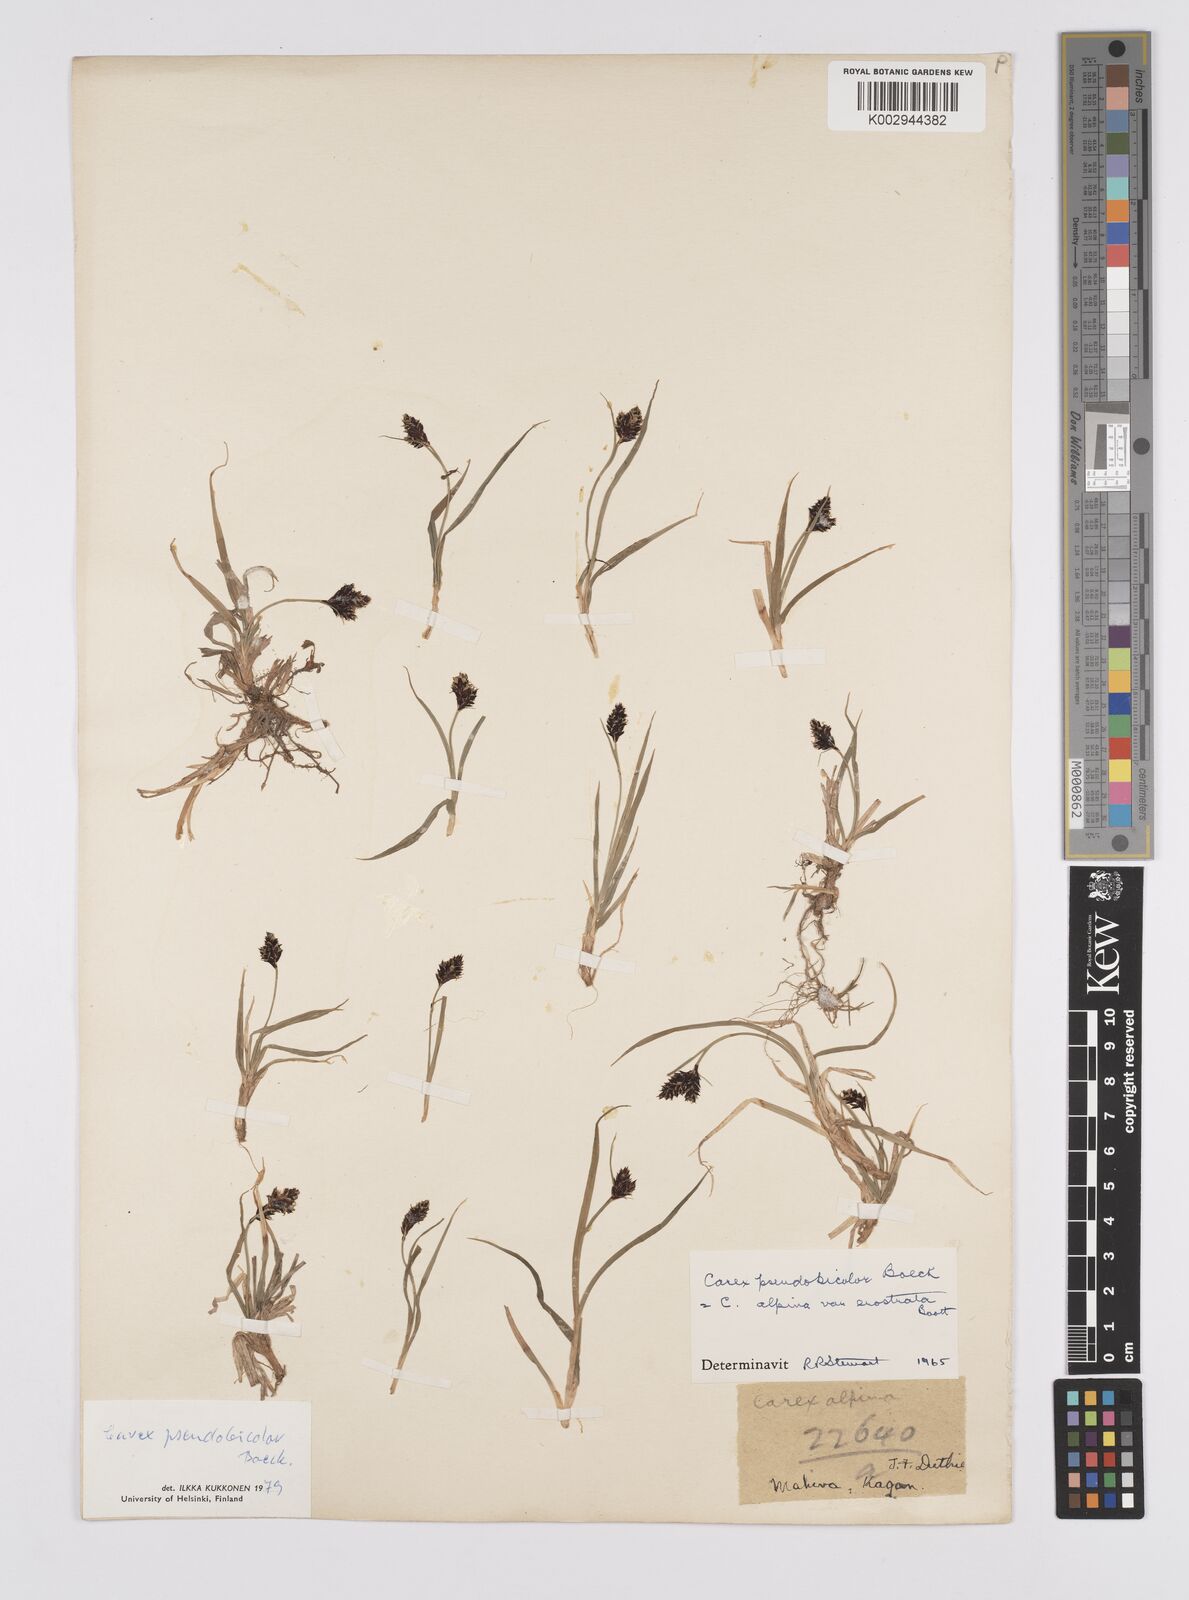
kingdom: Plantae
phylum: Tracheophyta
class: Liliopsida
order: Poales
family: Cyperaceae
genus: Carex
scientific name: Carex norvegica
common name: Close-headed alpine-sedge
